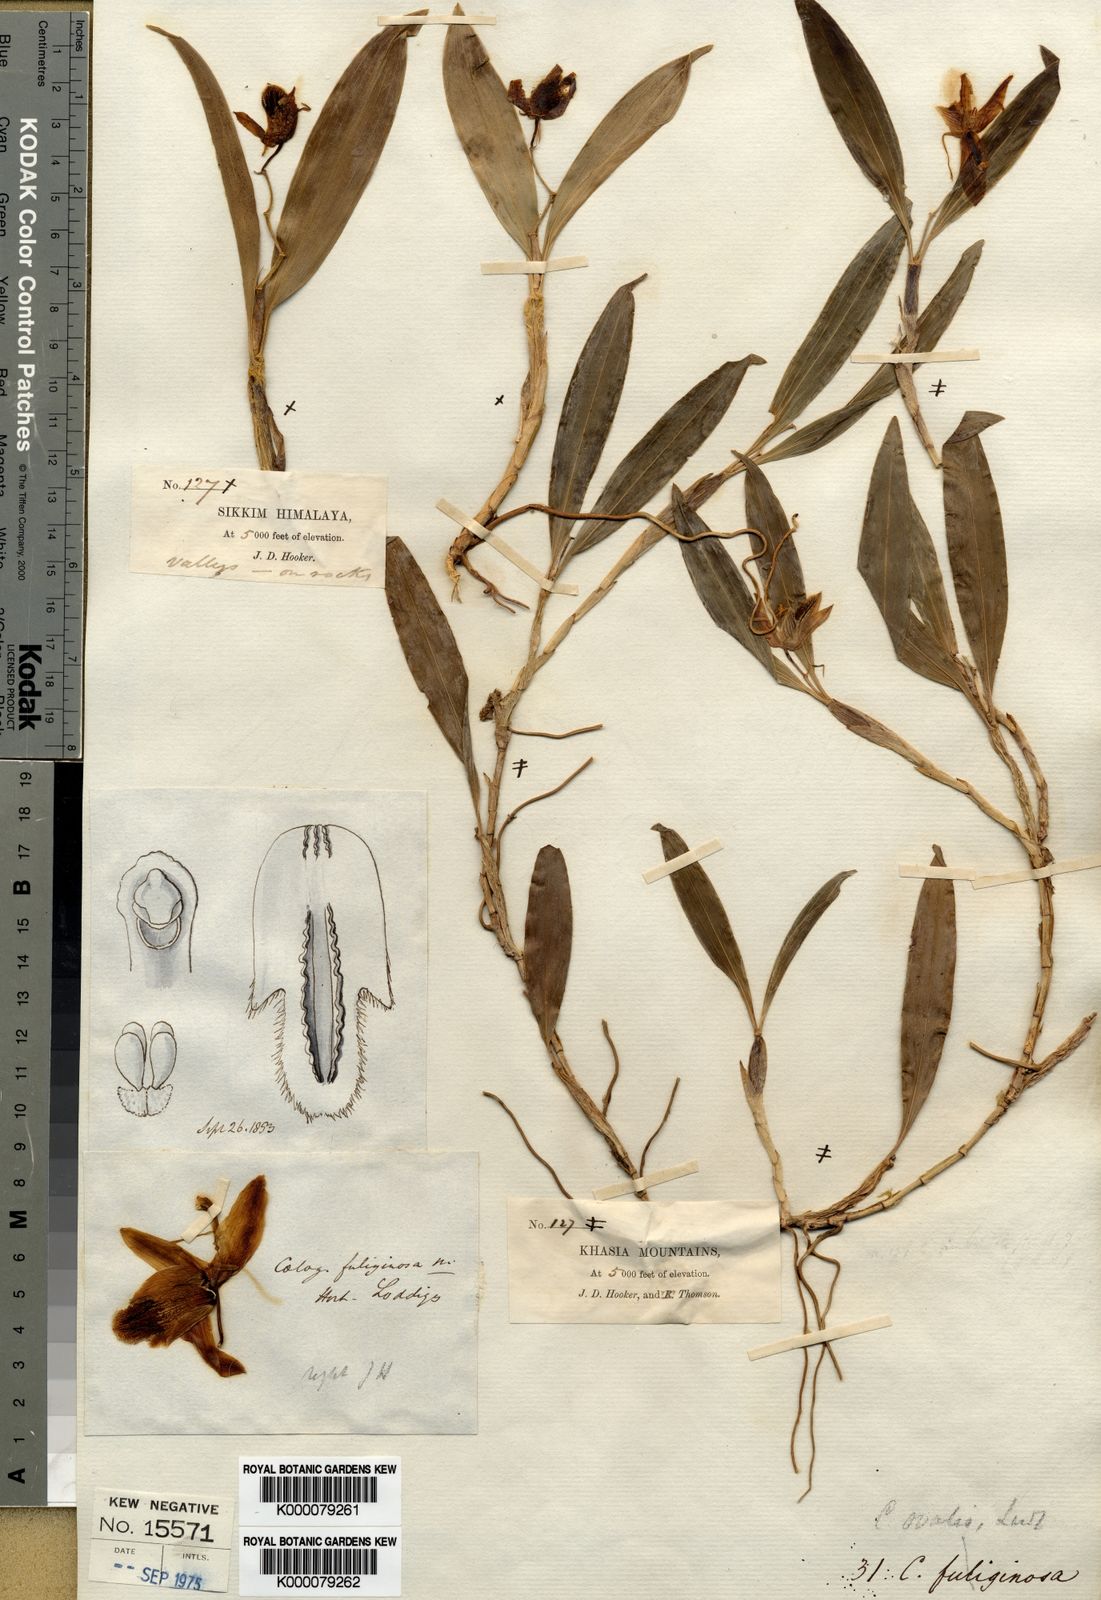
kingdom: Plantae
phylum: Tracheophyta
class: Liliopsida
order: Asparagales
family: Orchidaceae
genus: Coelogyne
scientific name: Coelogyne ovalis
